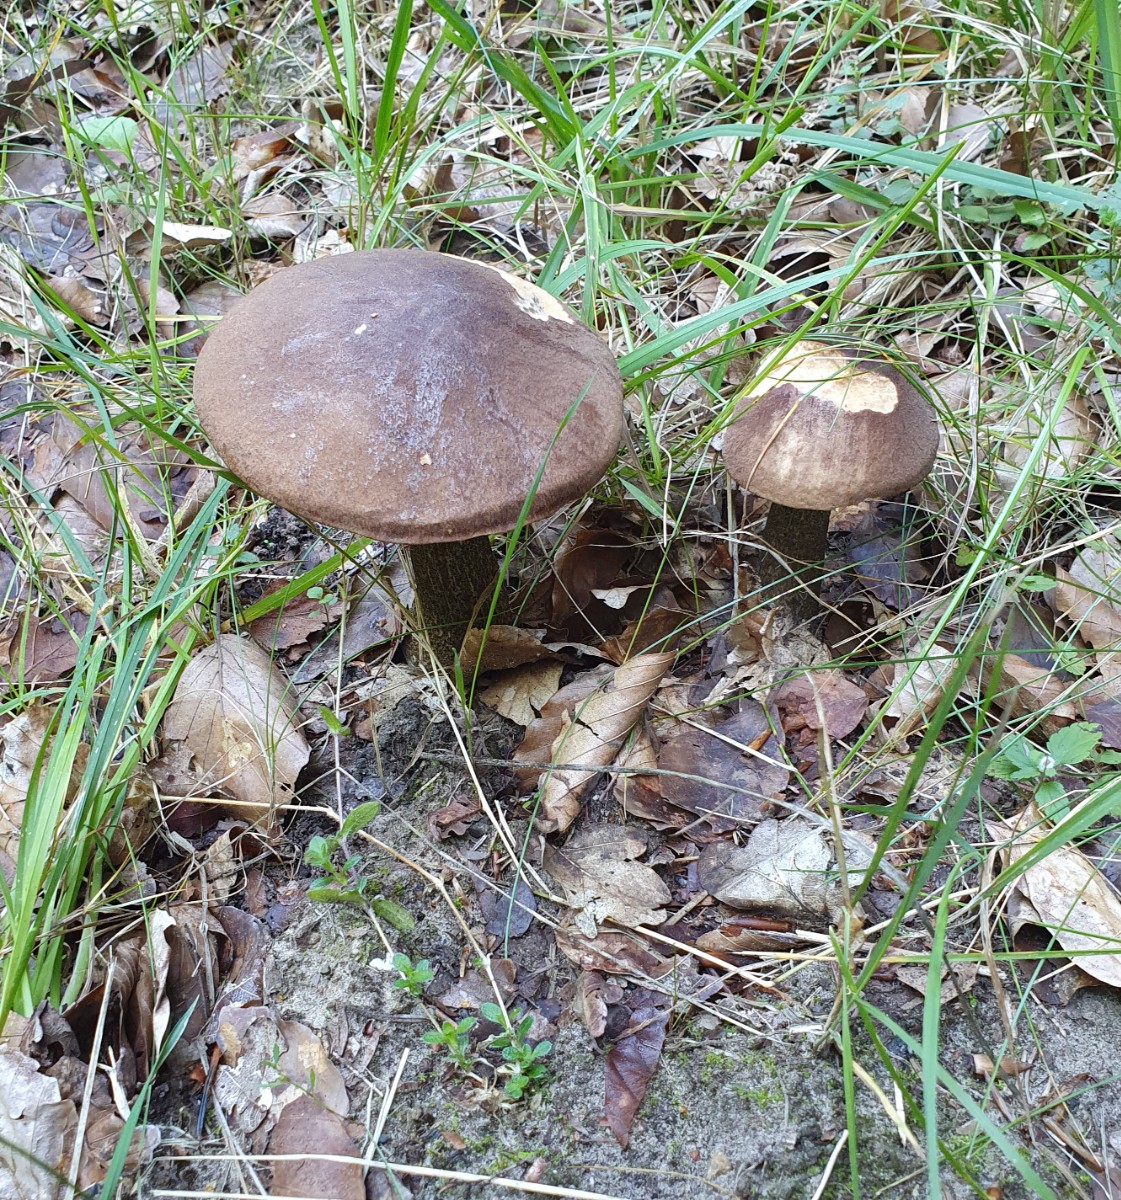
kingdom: Fungi
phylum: Basidiomycota
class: Agaricomycetes
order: Boletales
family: Boletaceae
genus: Leccinum
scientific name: Leccinum scabrum
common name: brun skælrørhat
